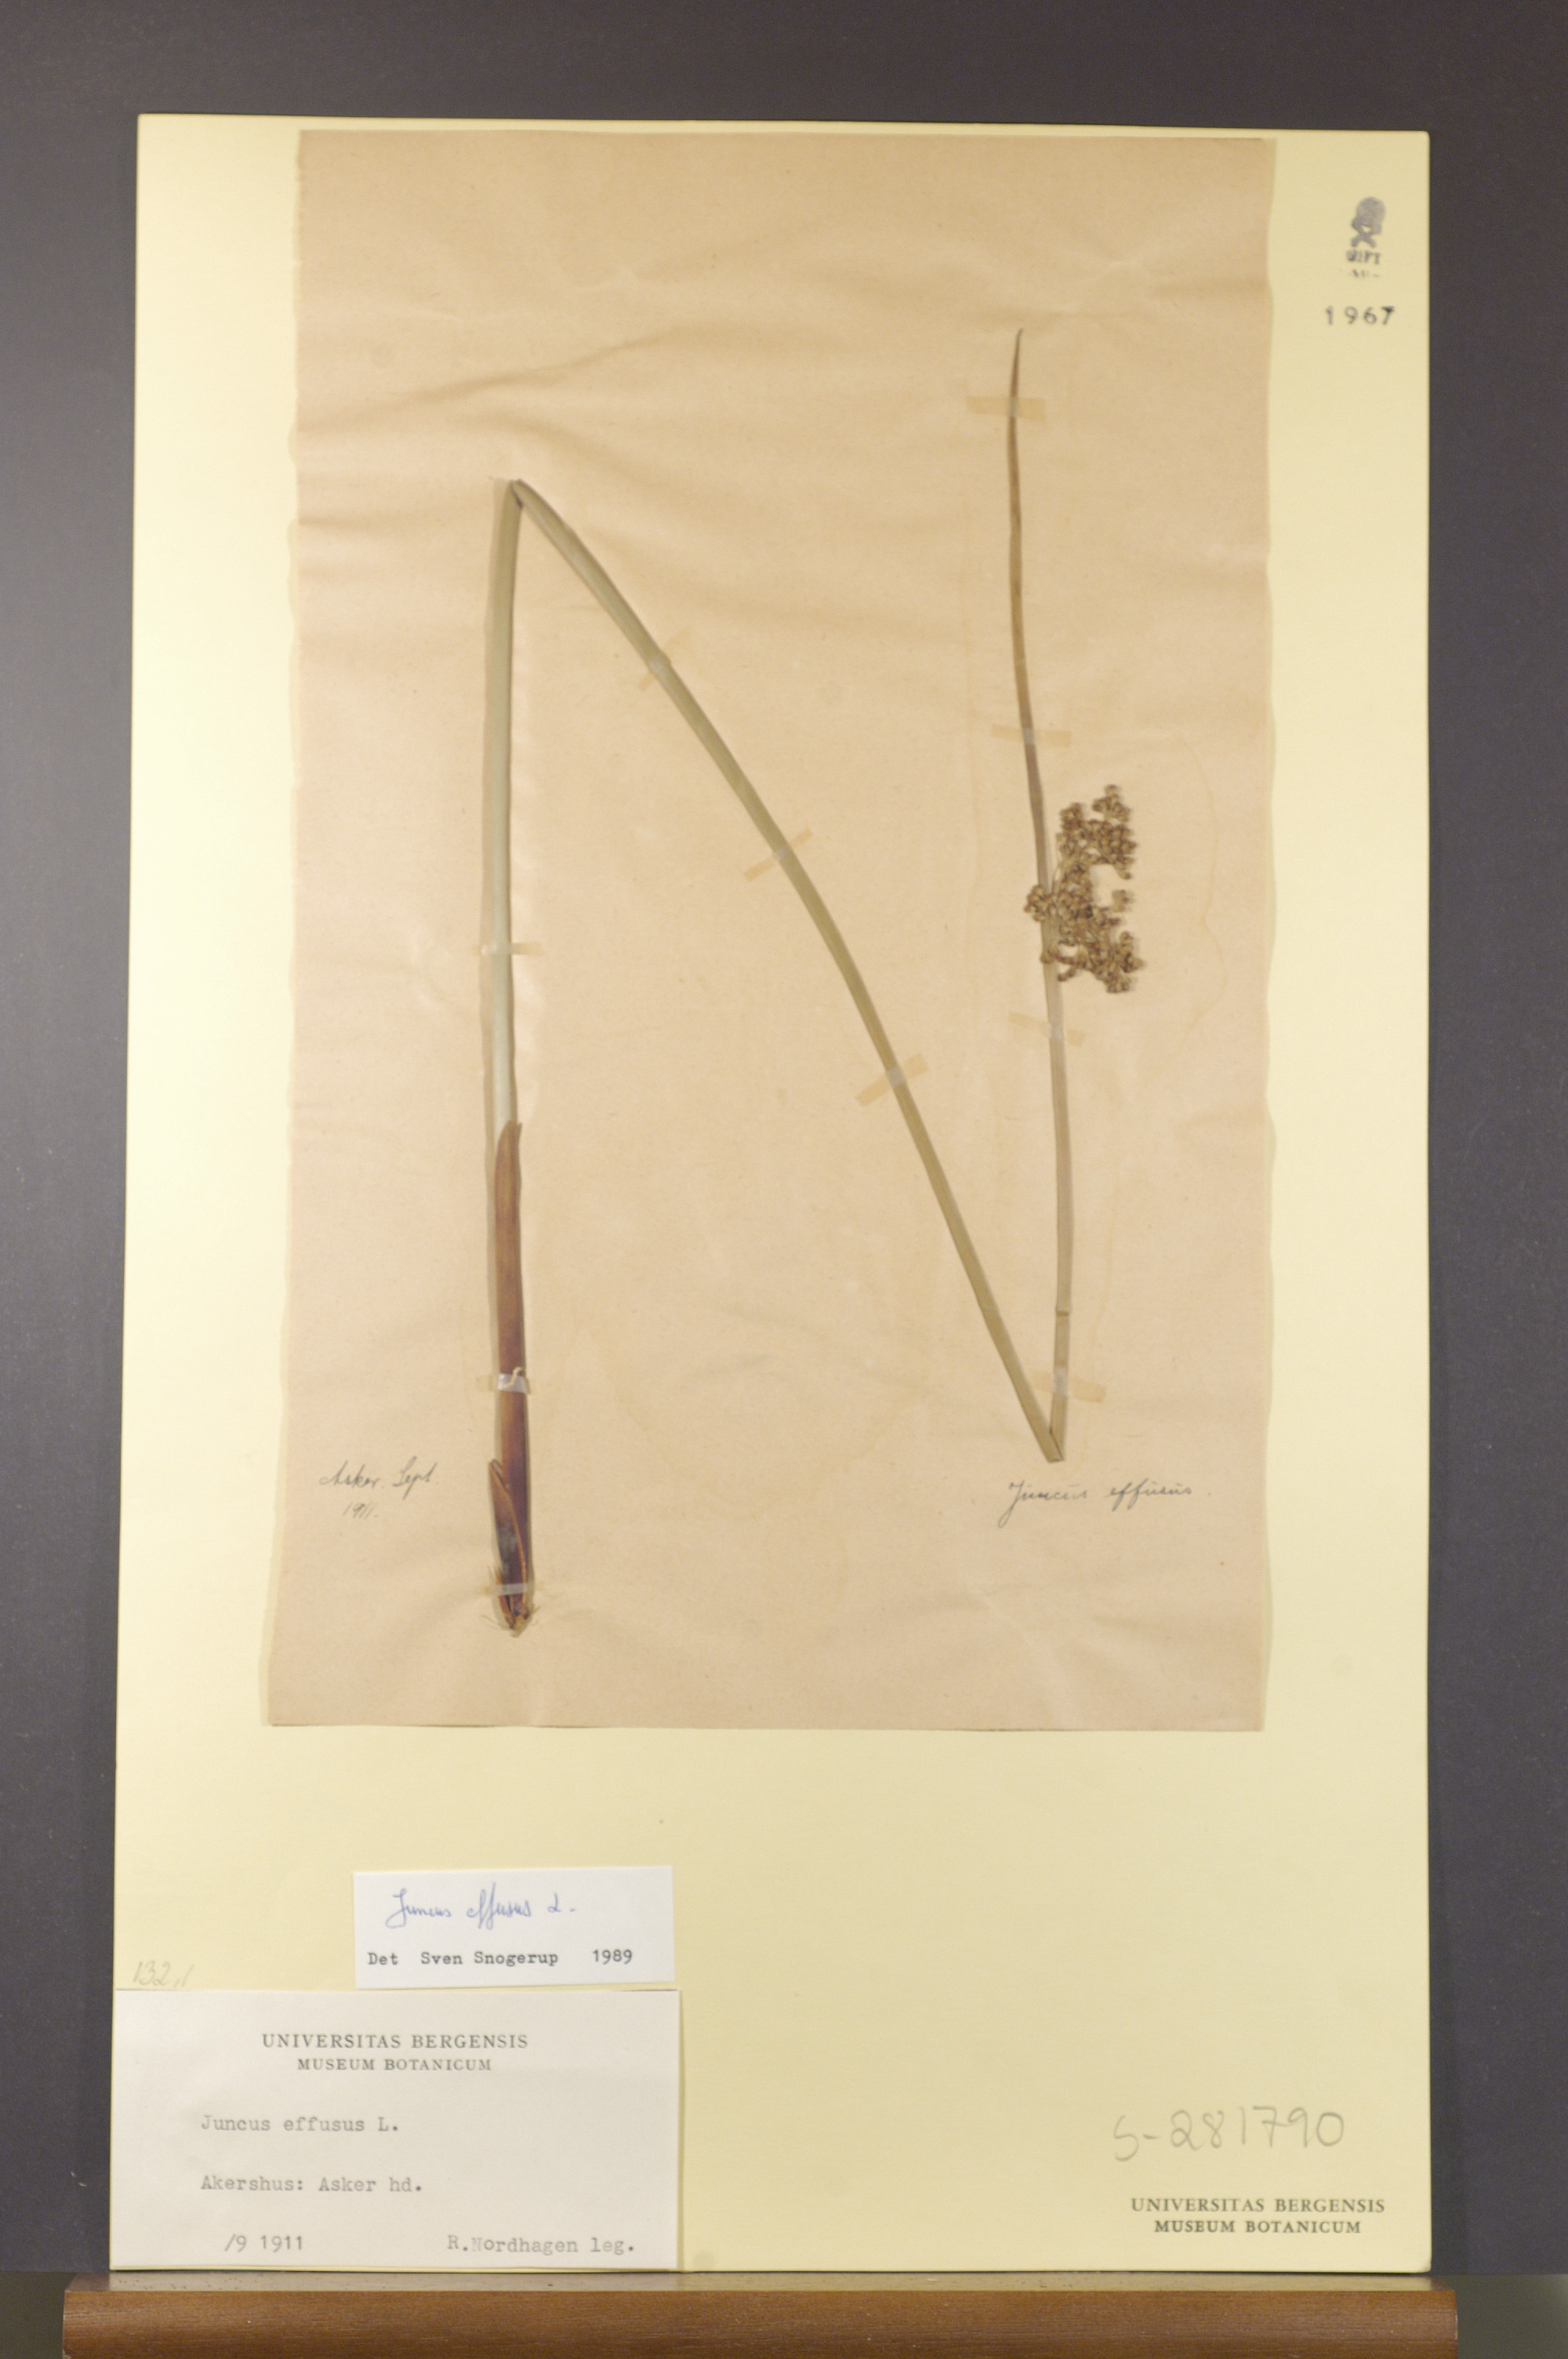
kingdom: Plantae
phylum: Tracheophyta
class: Liliopsida
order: Poales
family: Juncaceae
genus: Juncus
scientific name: Juncus effusus
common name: Soft rush
